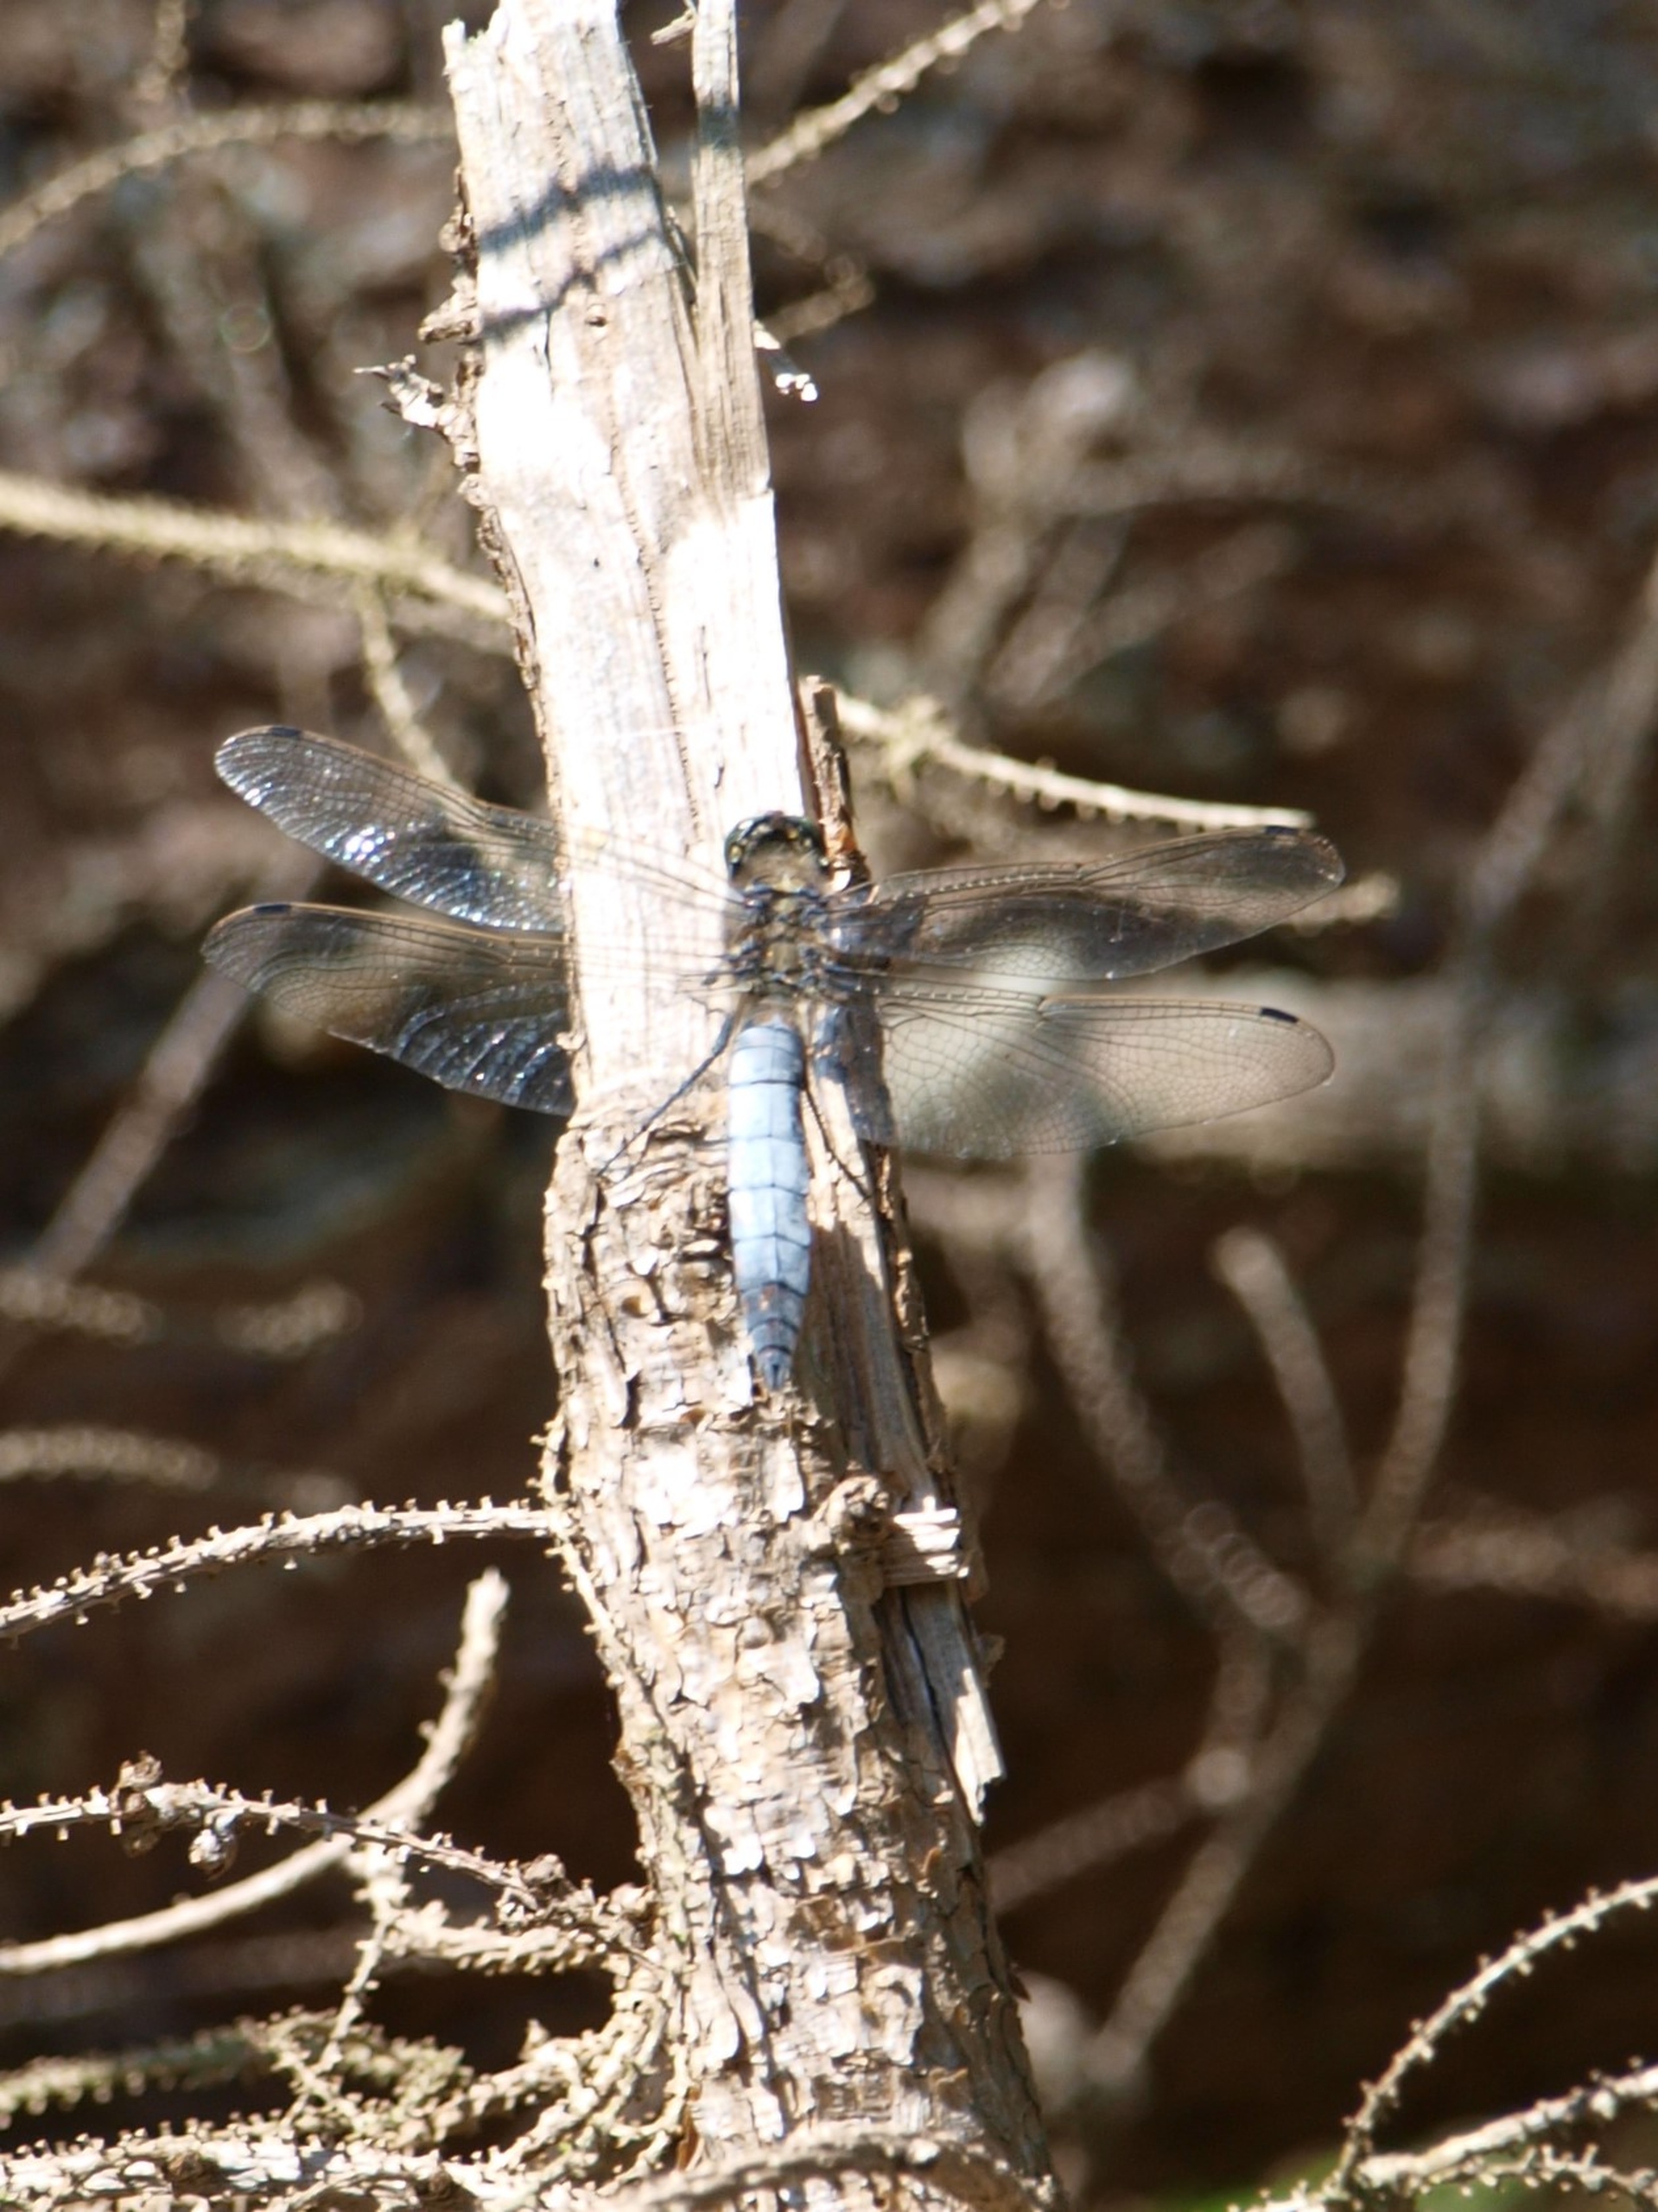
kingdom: Animalia
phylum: Arthropoda
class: Insecta
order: Odonata
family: Libellulidae
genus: Orthetrum
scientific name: Orthetrum cancellatum
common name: Stor blåpil
